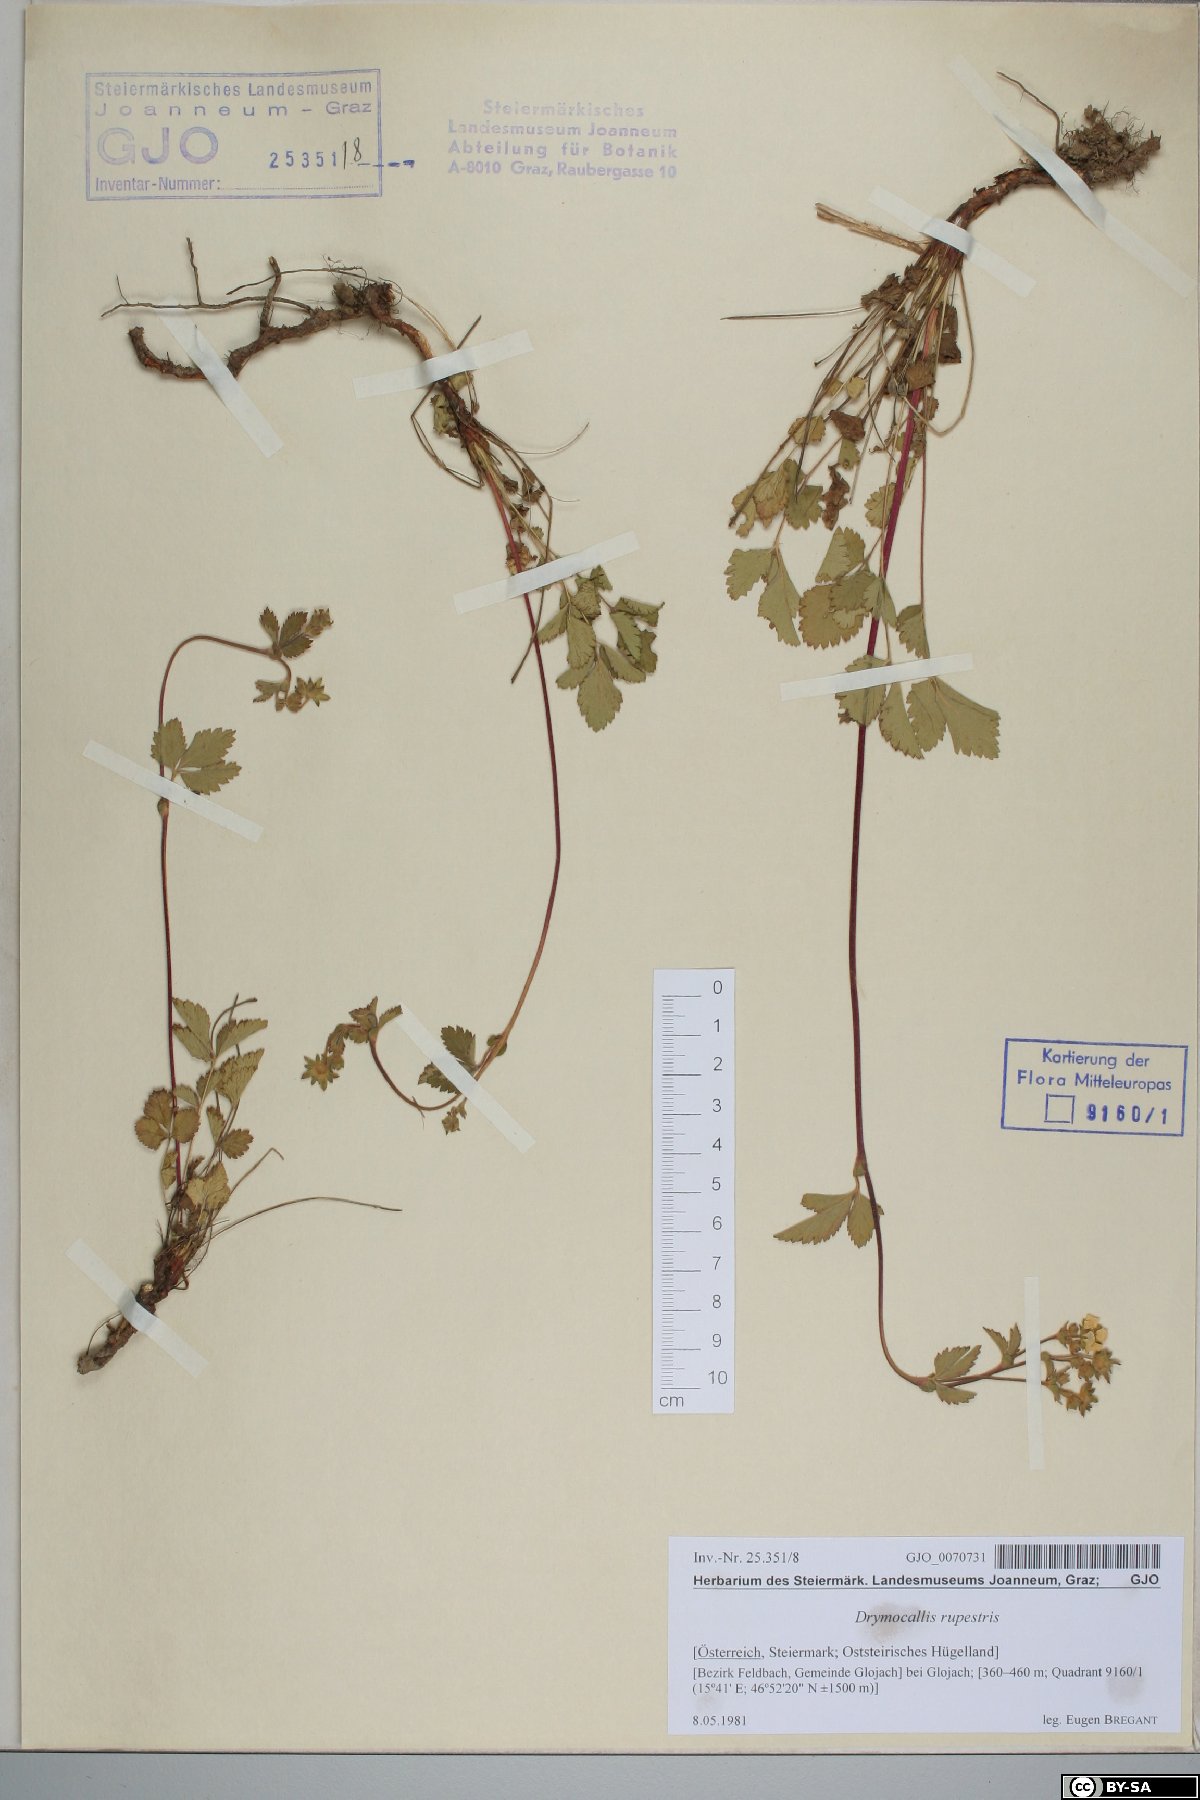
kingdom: Plantae
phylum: Tracheophyta
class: Magnoliopsida
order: Rosales
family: Rosaceae
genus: Drymocallis
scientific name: Drymocallis rupestris
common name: Rock cinquefoil
